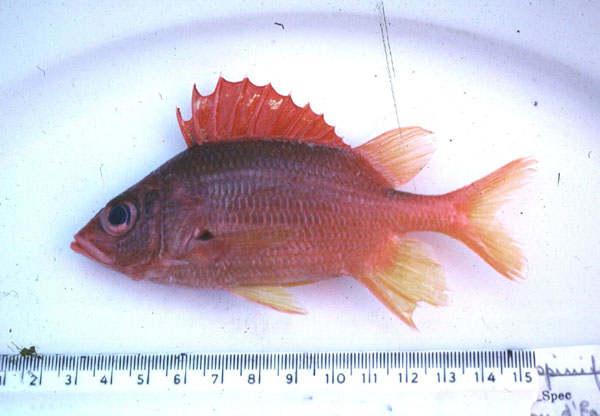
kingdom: Animalia
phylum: Chordata
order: Beryciformes
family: Holocentridae
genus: Sargocentron
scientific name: Sargocentron spiniferum
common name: Giant squirrelfish
